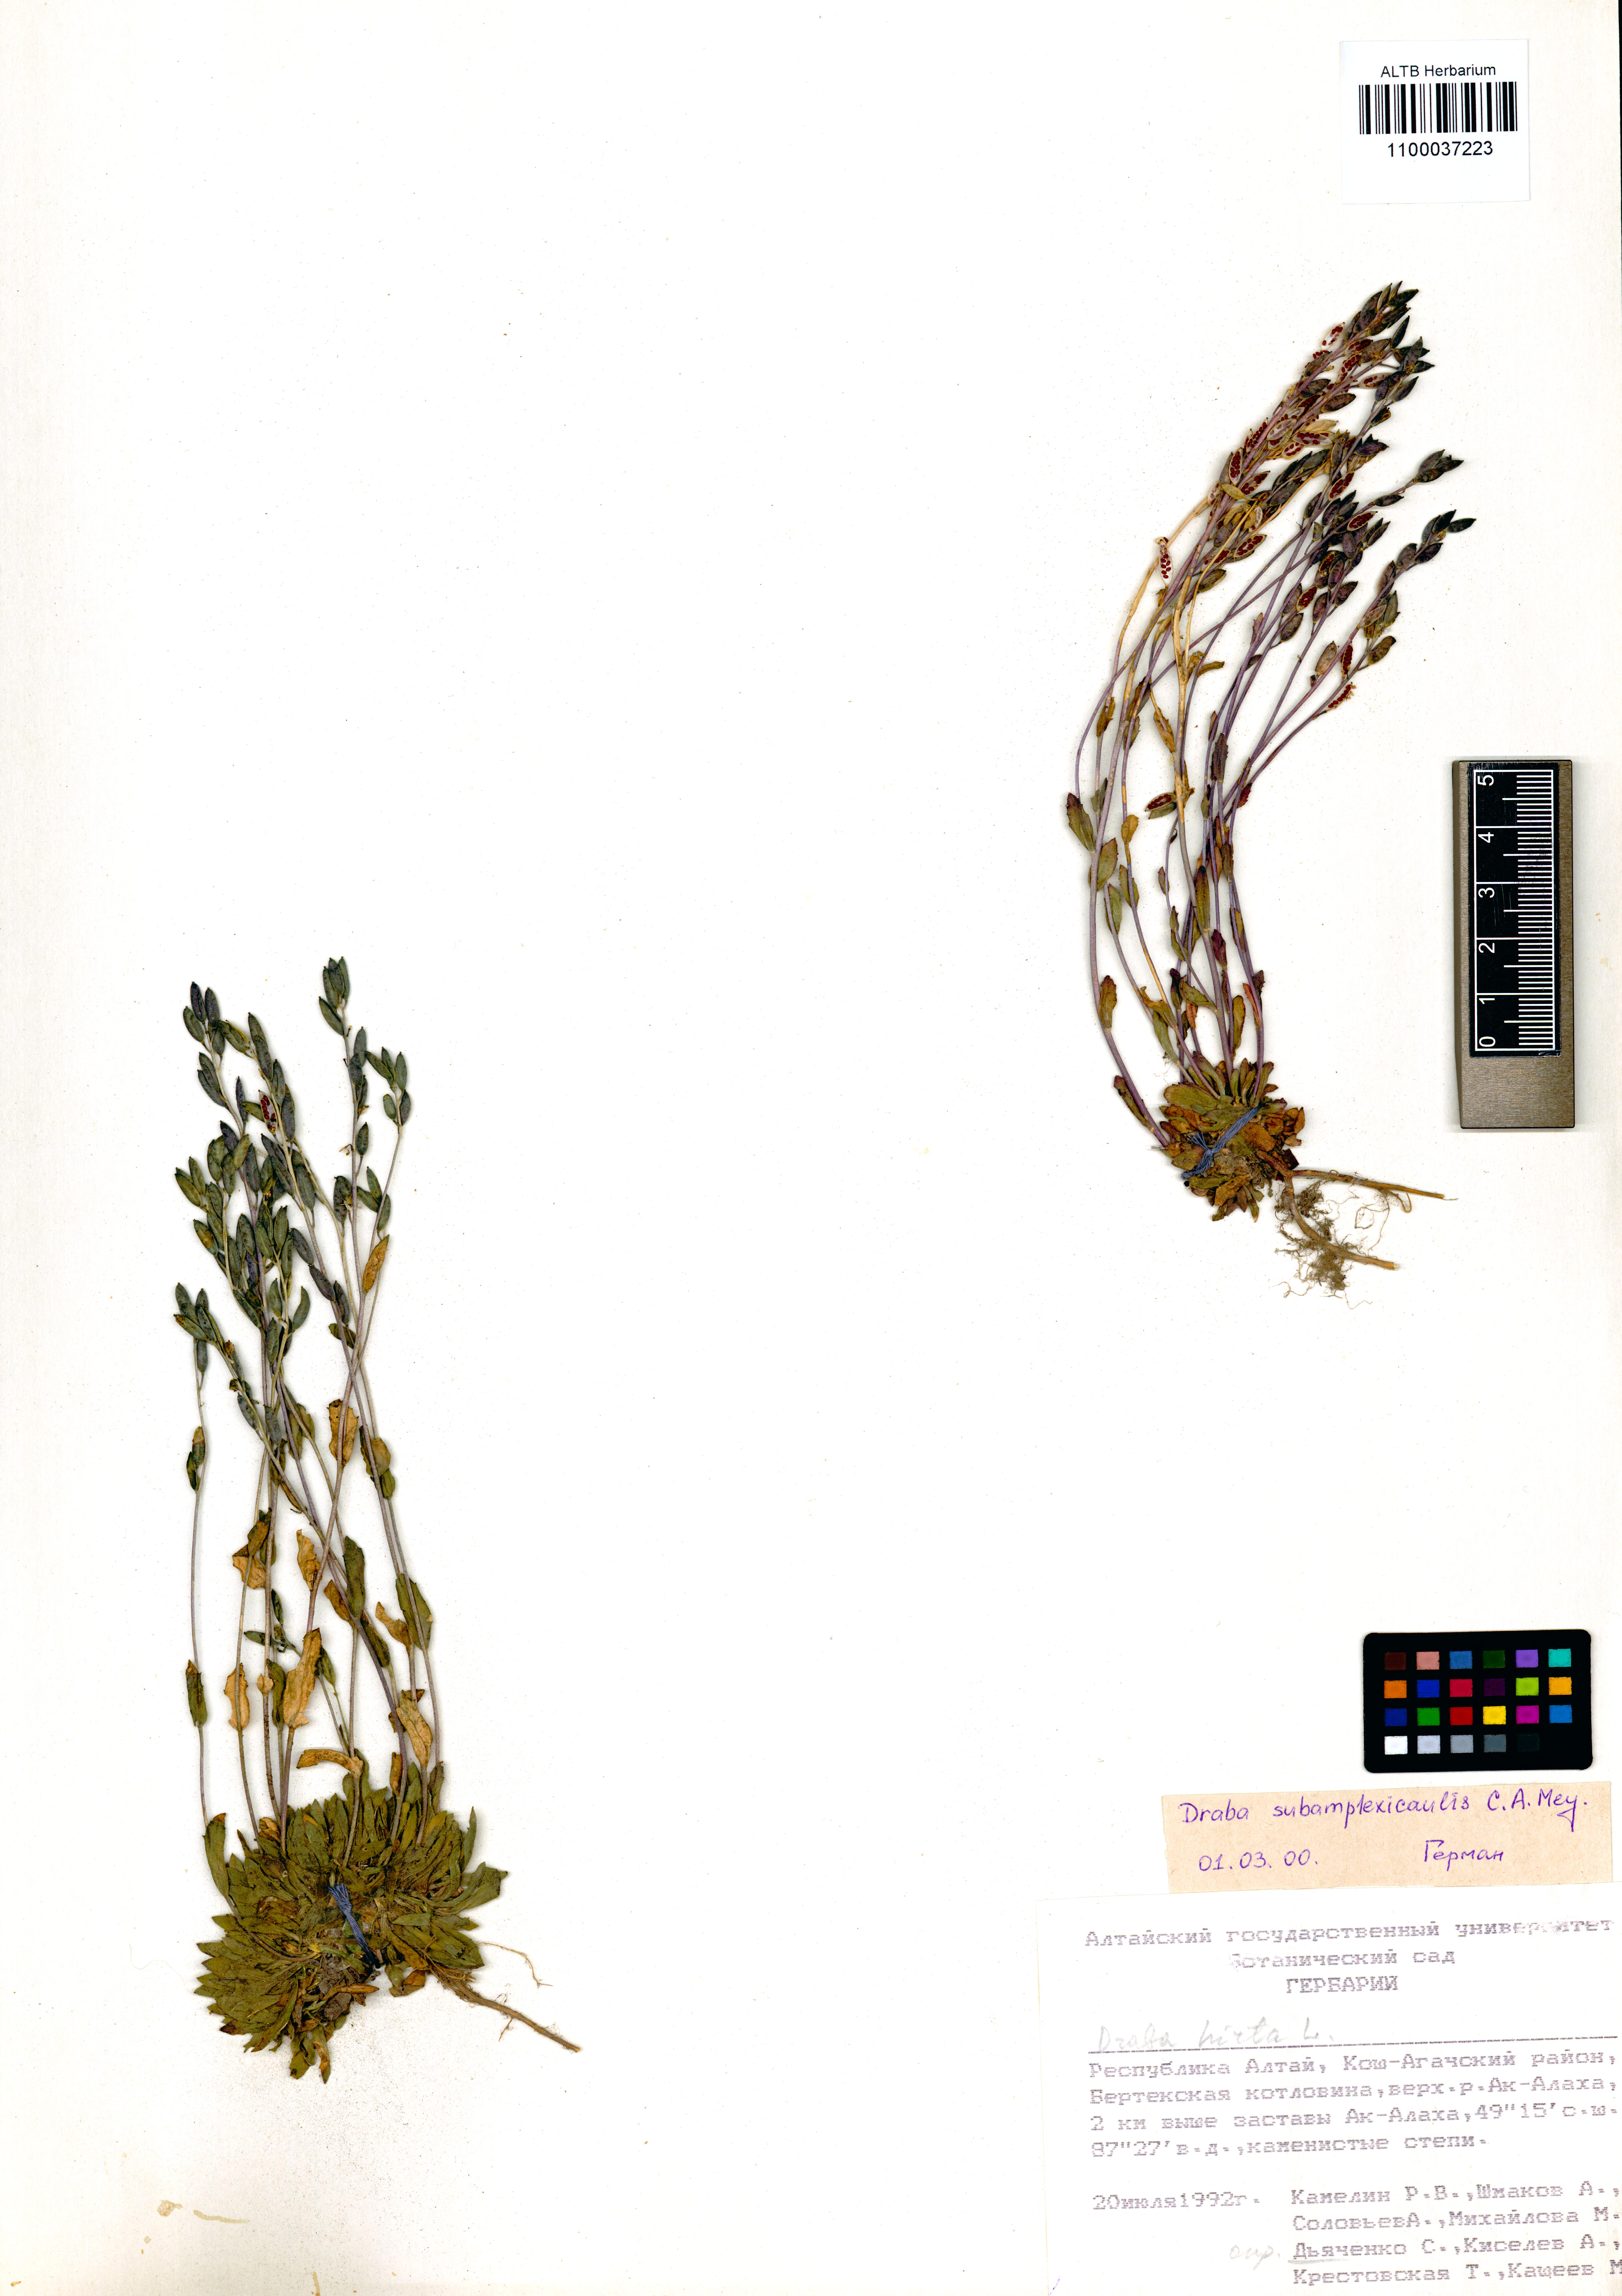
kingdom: Plantae
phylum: Tracheophyta
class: Magnoliopsida
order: Brassicales
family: Brassicaceae
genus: Draba
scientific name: Draba subamplexicaulis
